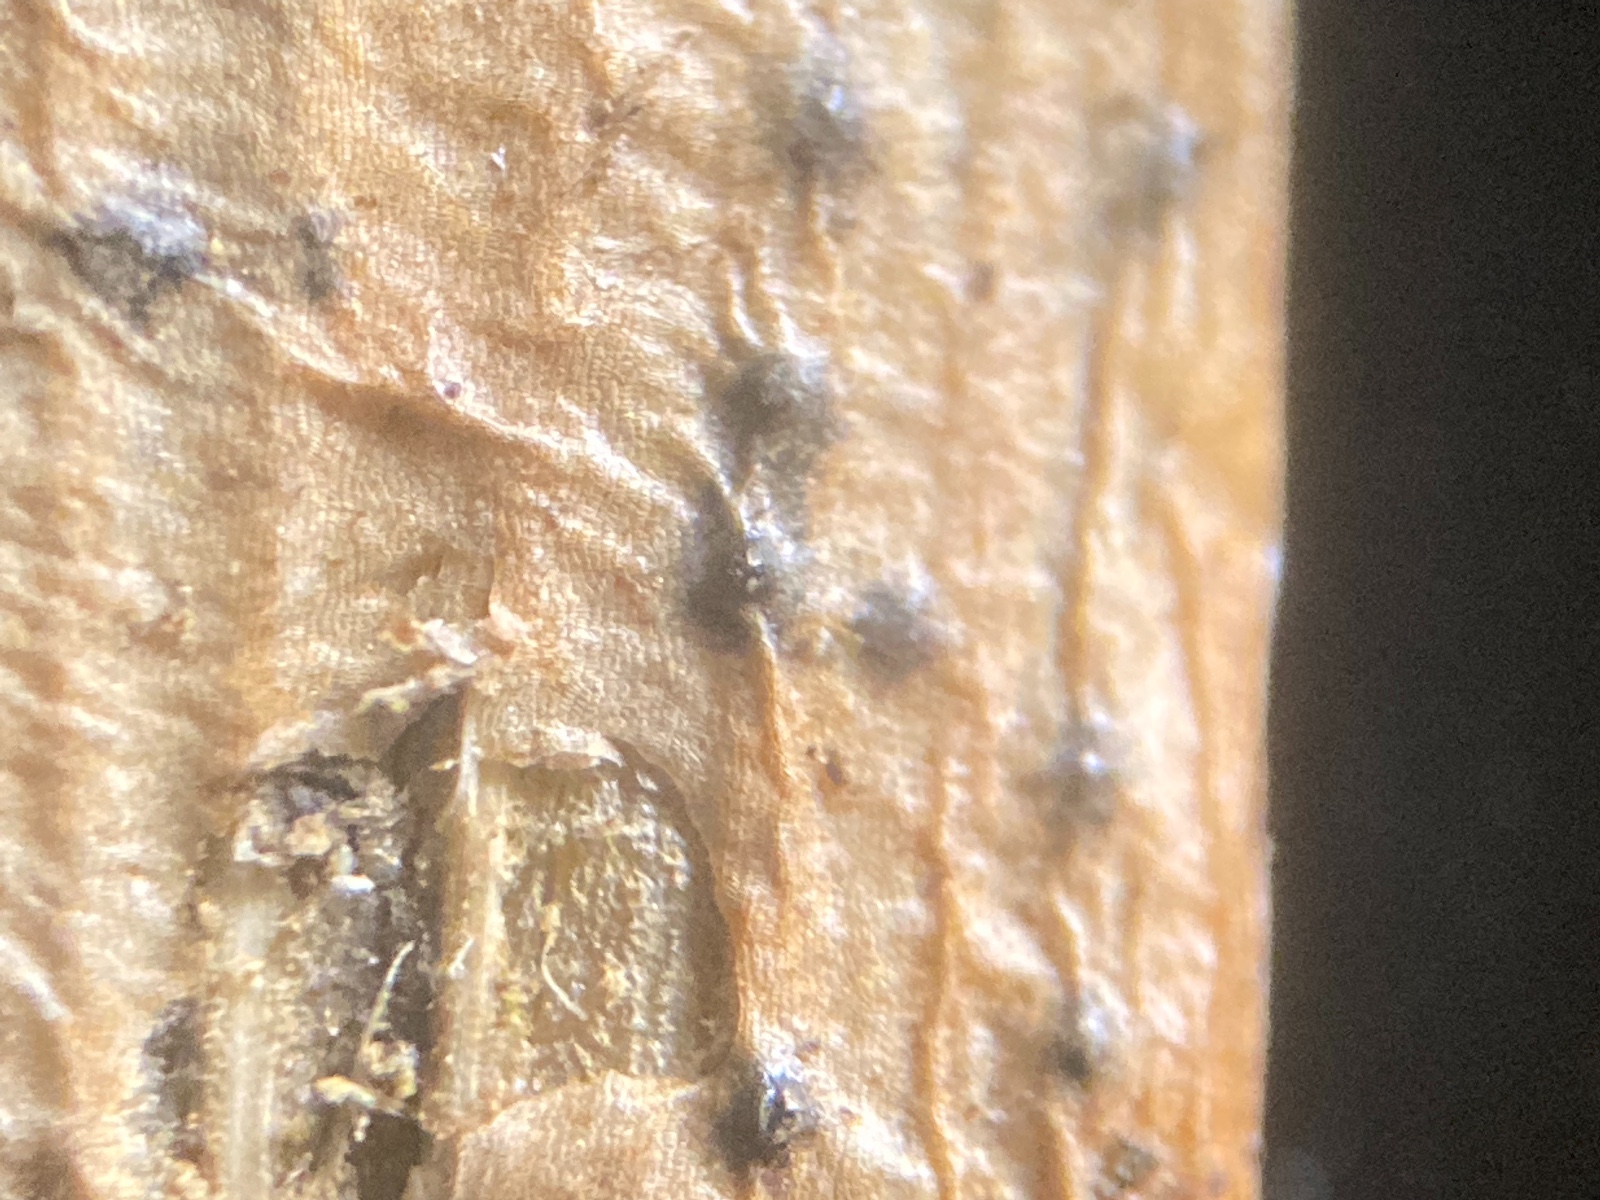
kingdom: Fungi
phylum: Ascomycota
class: Sordariomycetes
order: Diaporthales
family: Diaporthaceae
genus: Diaporthe
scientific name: Diaporthe samaricola
